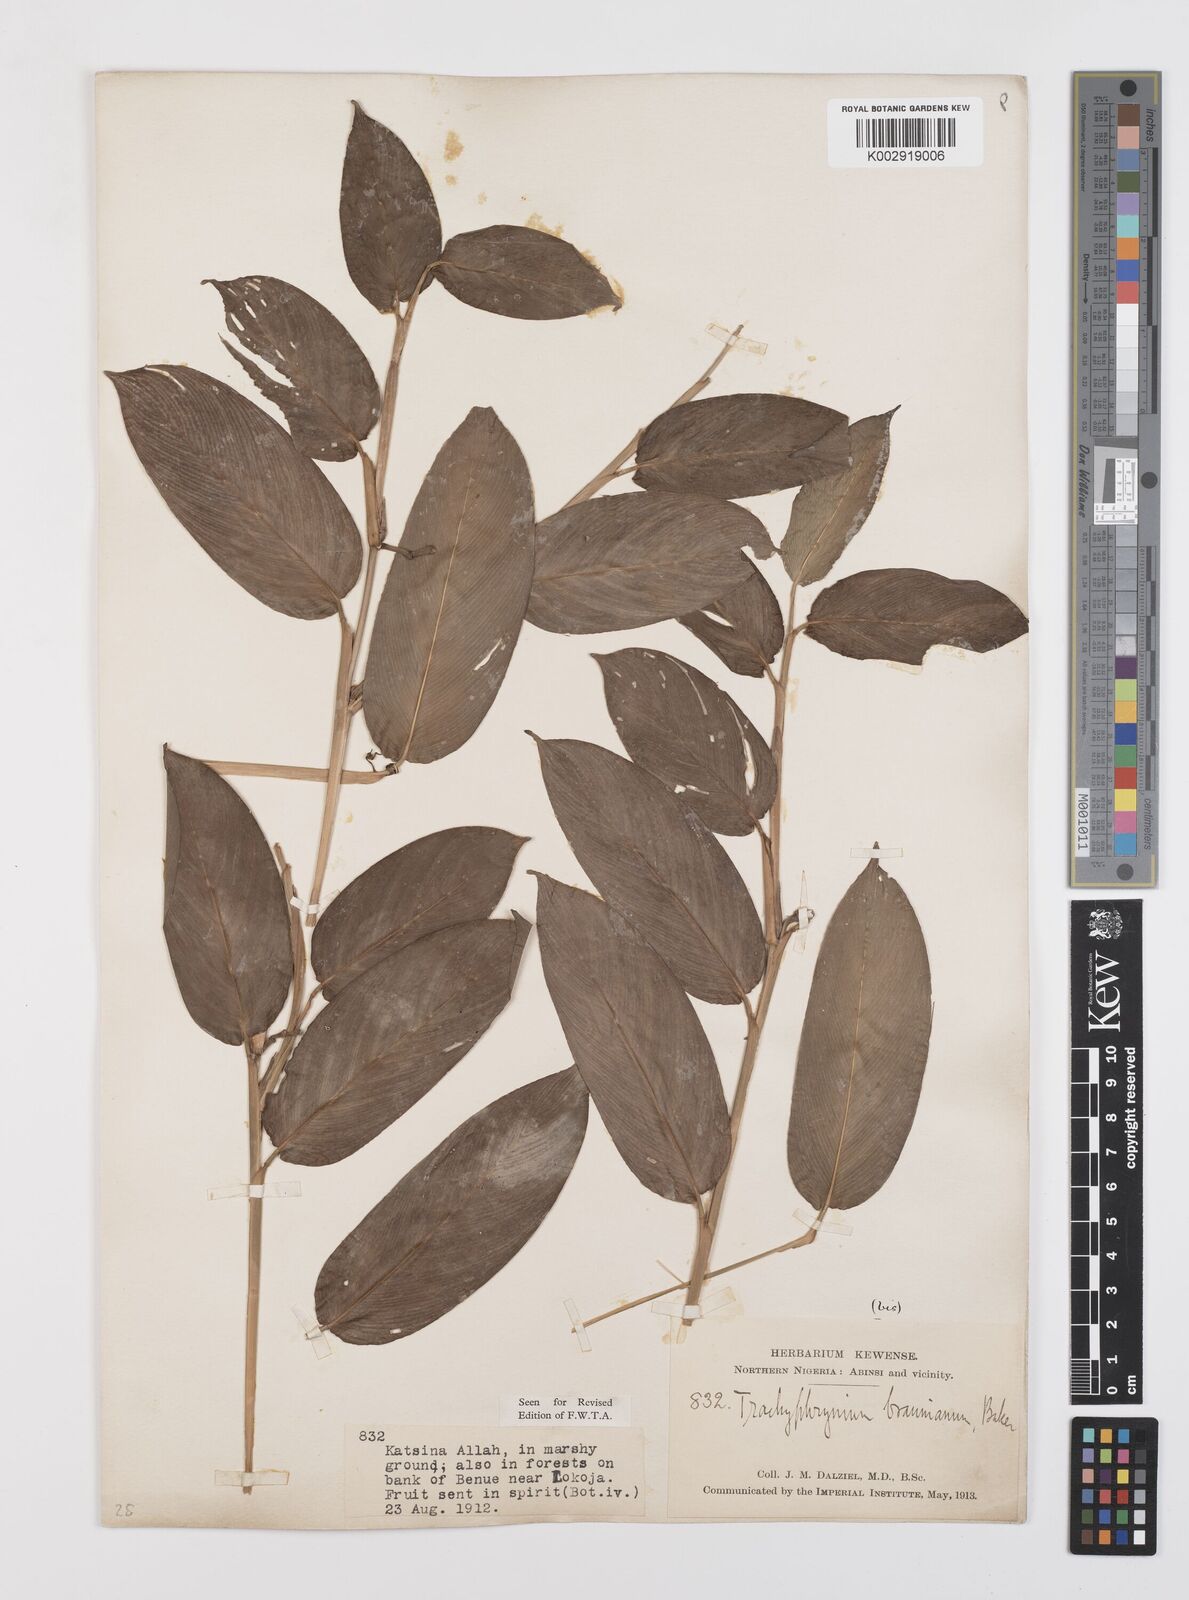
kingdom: Plantae
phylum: Tracheophyta
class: Liliopsida
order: Zingiberales
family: Marantaceae
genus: Trachyphrynium
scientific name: Trachyphrynium braunianum
